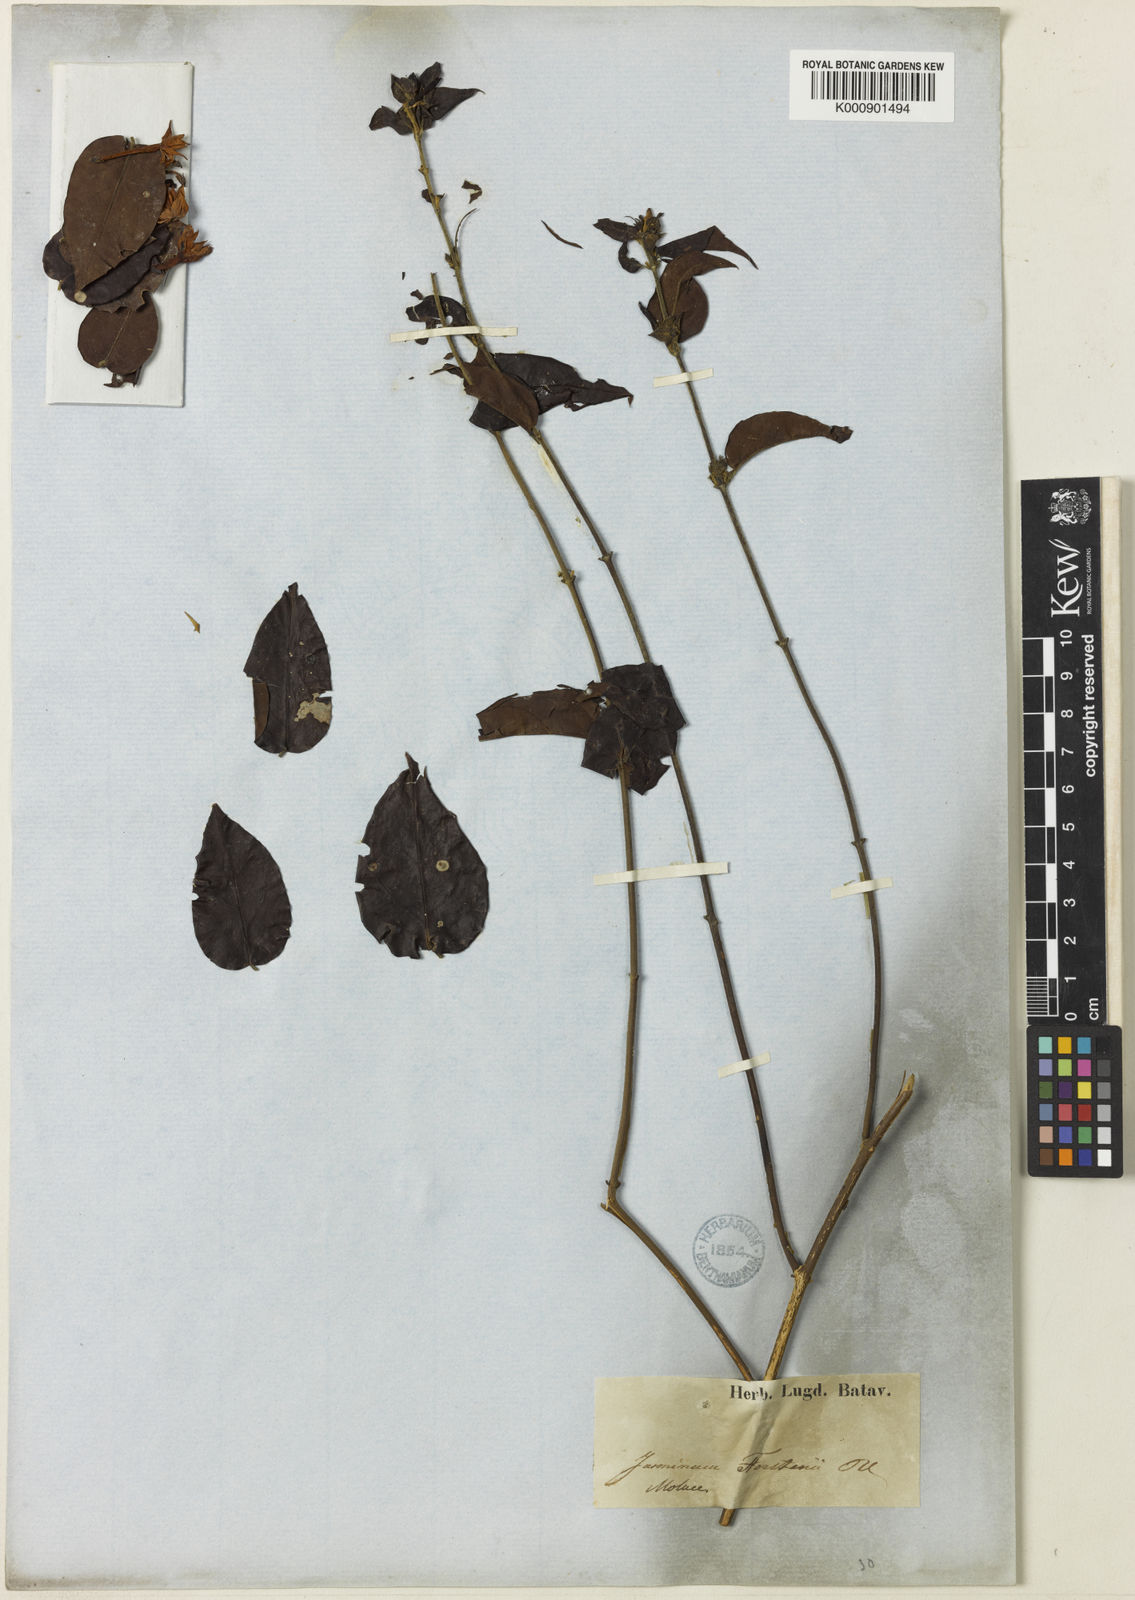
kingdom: Plantae
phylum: Tracheophyta
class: Magnoliopsida
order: Lamiales
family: Oleaceae
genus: Jasminum
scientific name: Jasminum elongatum
